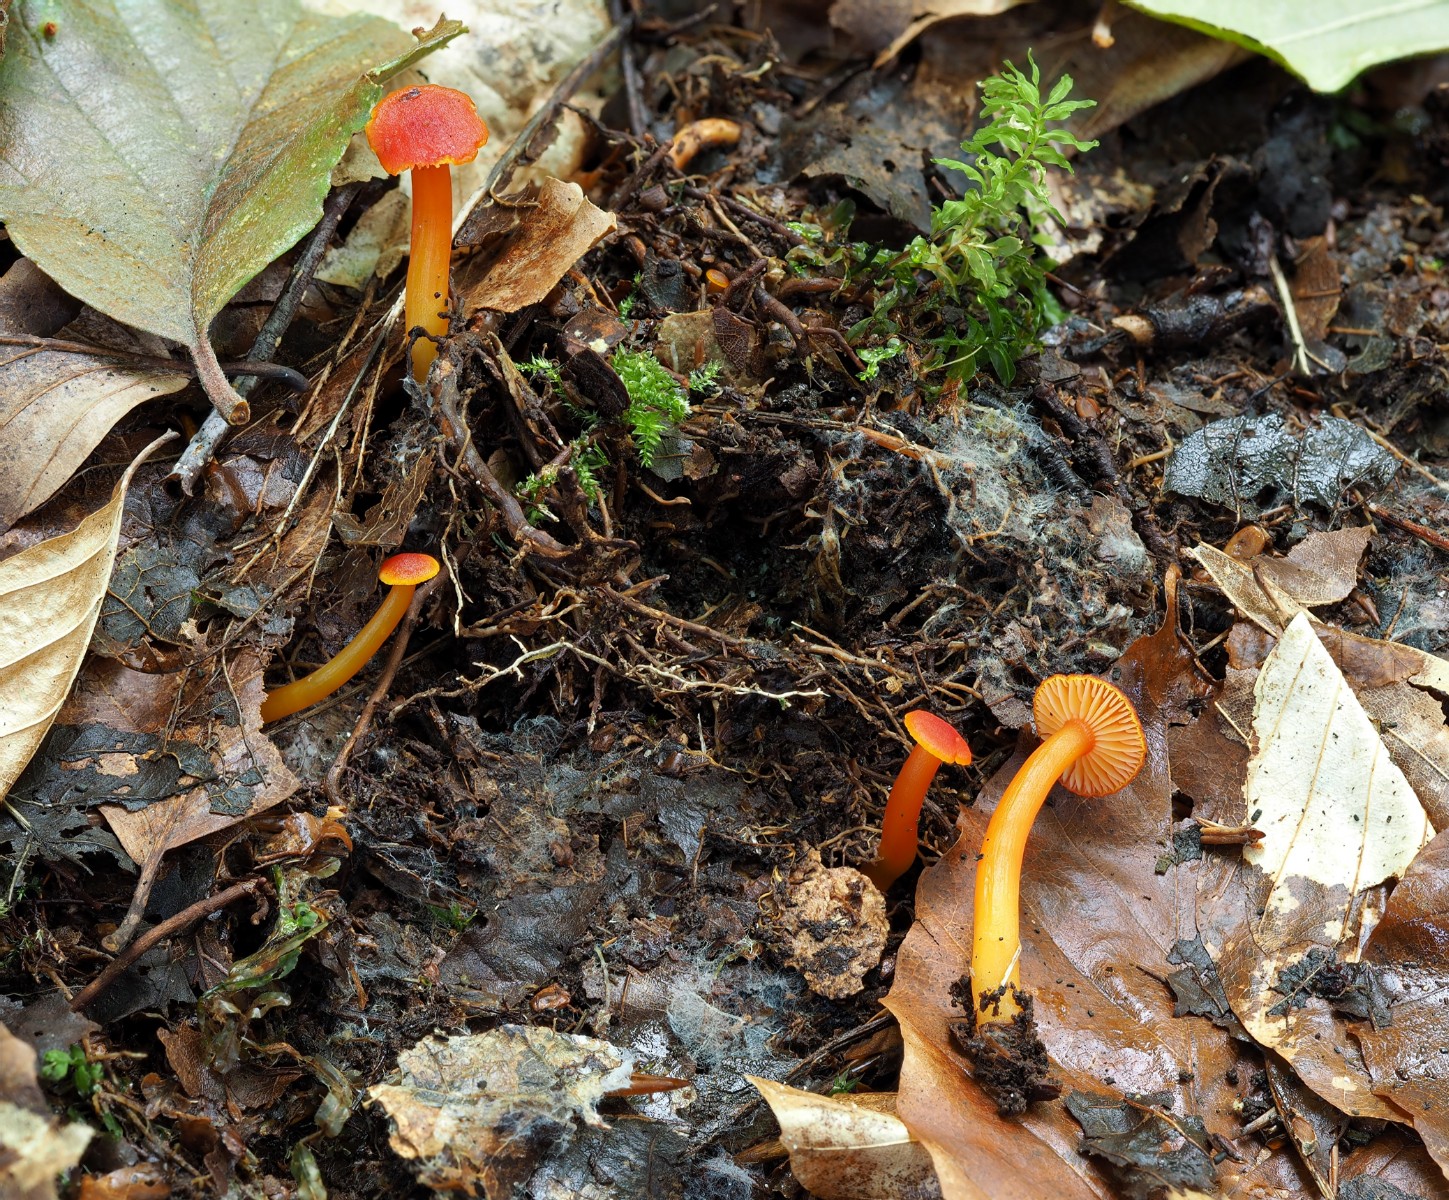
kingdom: Fungi
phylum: Basidiomycota
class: Agaricomycetes
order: Agaricales
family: Hygrophoraceae
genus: Hygrocybe
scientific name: Hygrocybe miniata
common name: mønje-vokshat
